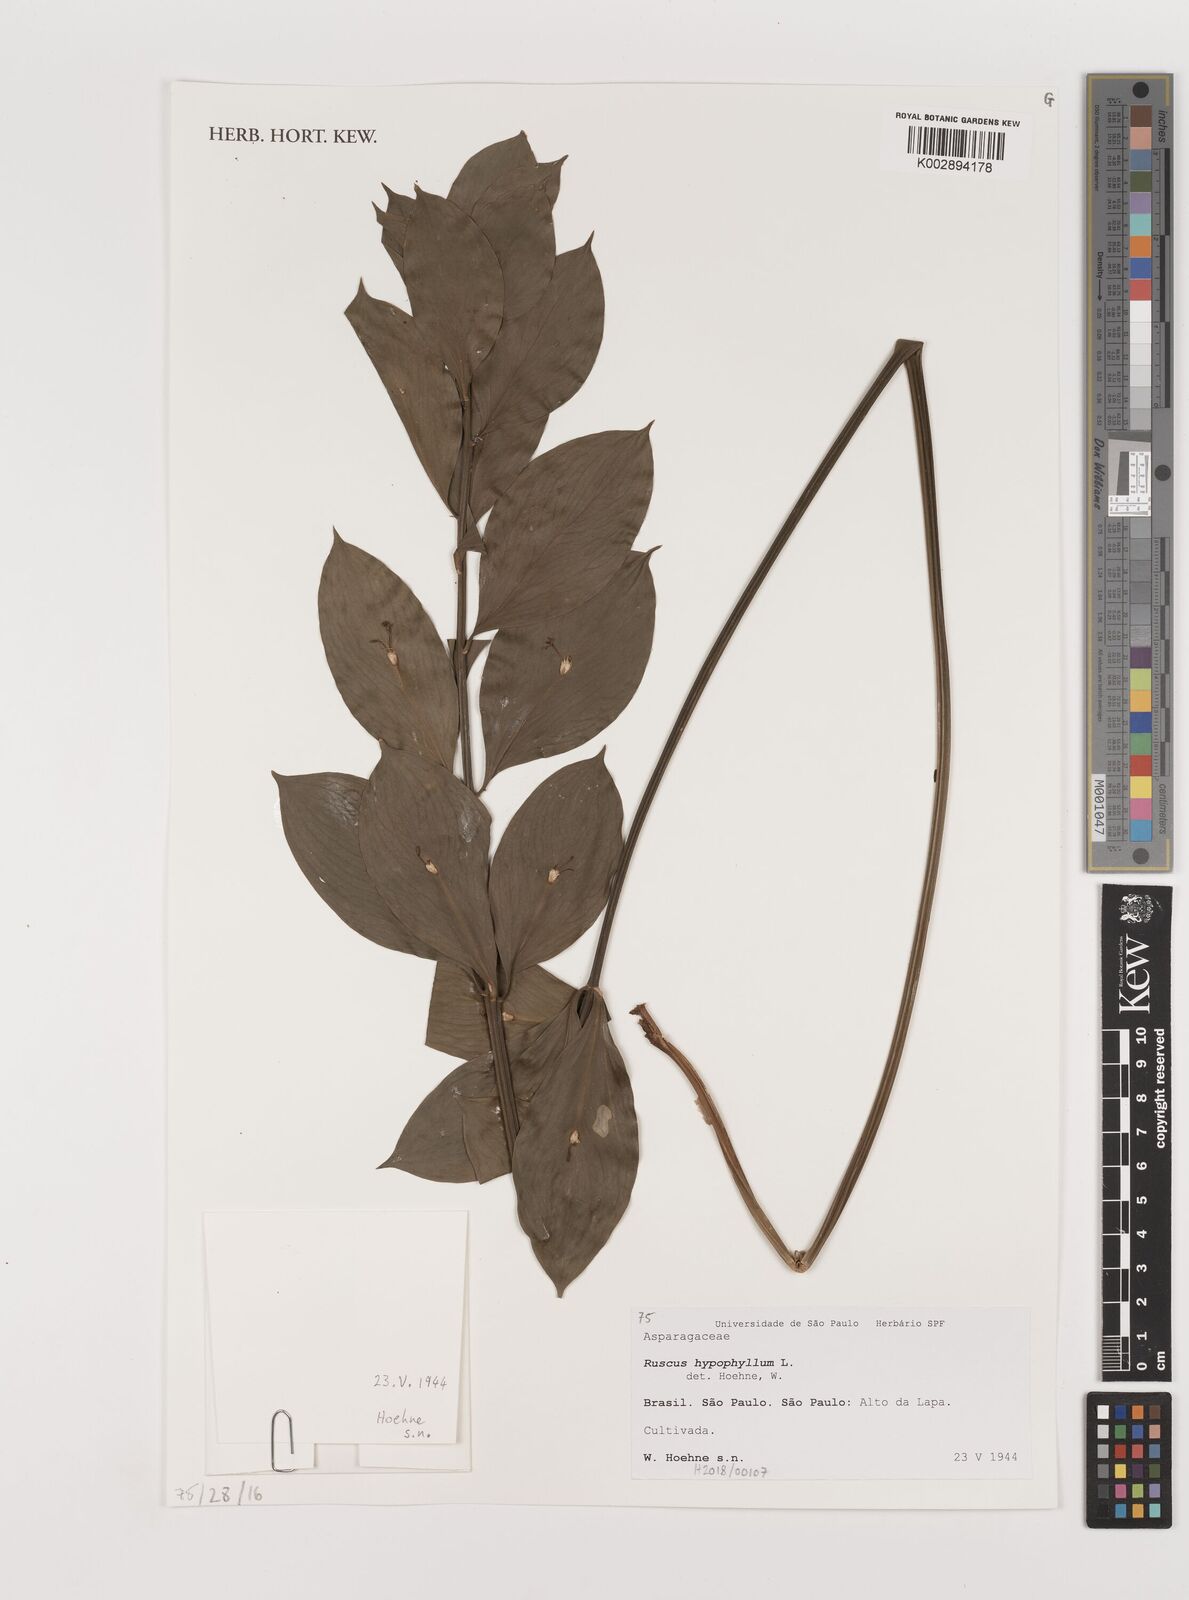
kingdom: Plantae
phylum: Tracheophyta
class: Liliopsida
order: Asparagales
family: Asparagaceae
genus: Ruscus
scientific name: Ruscus
